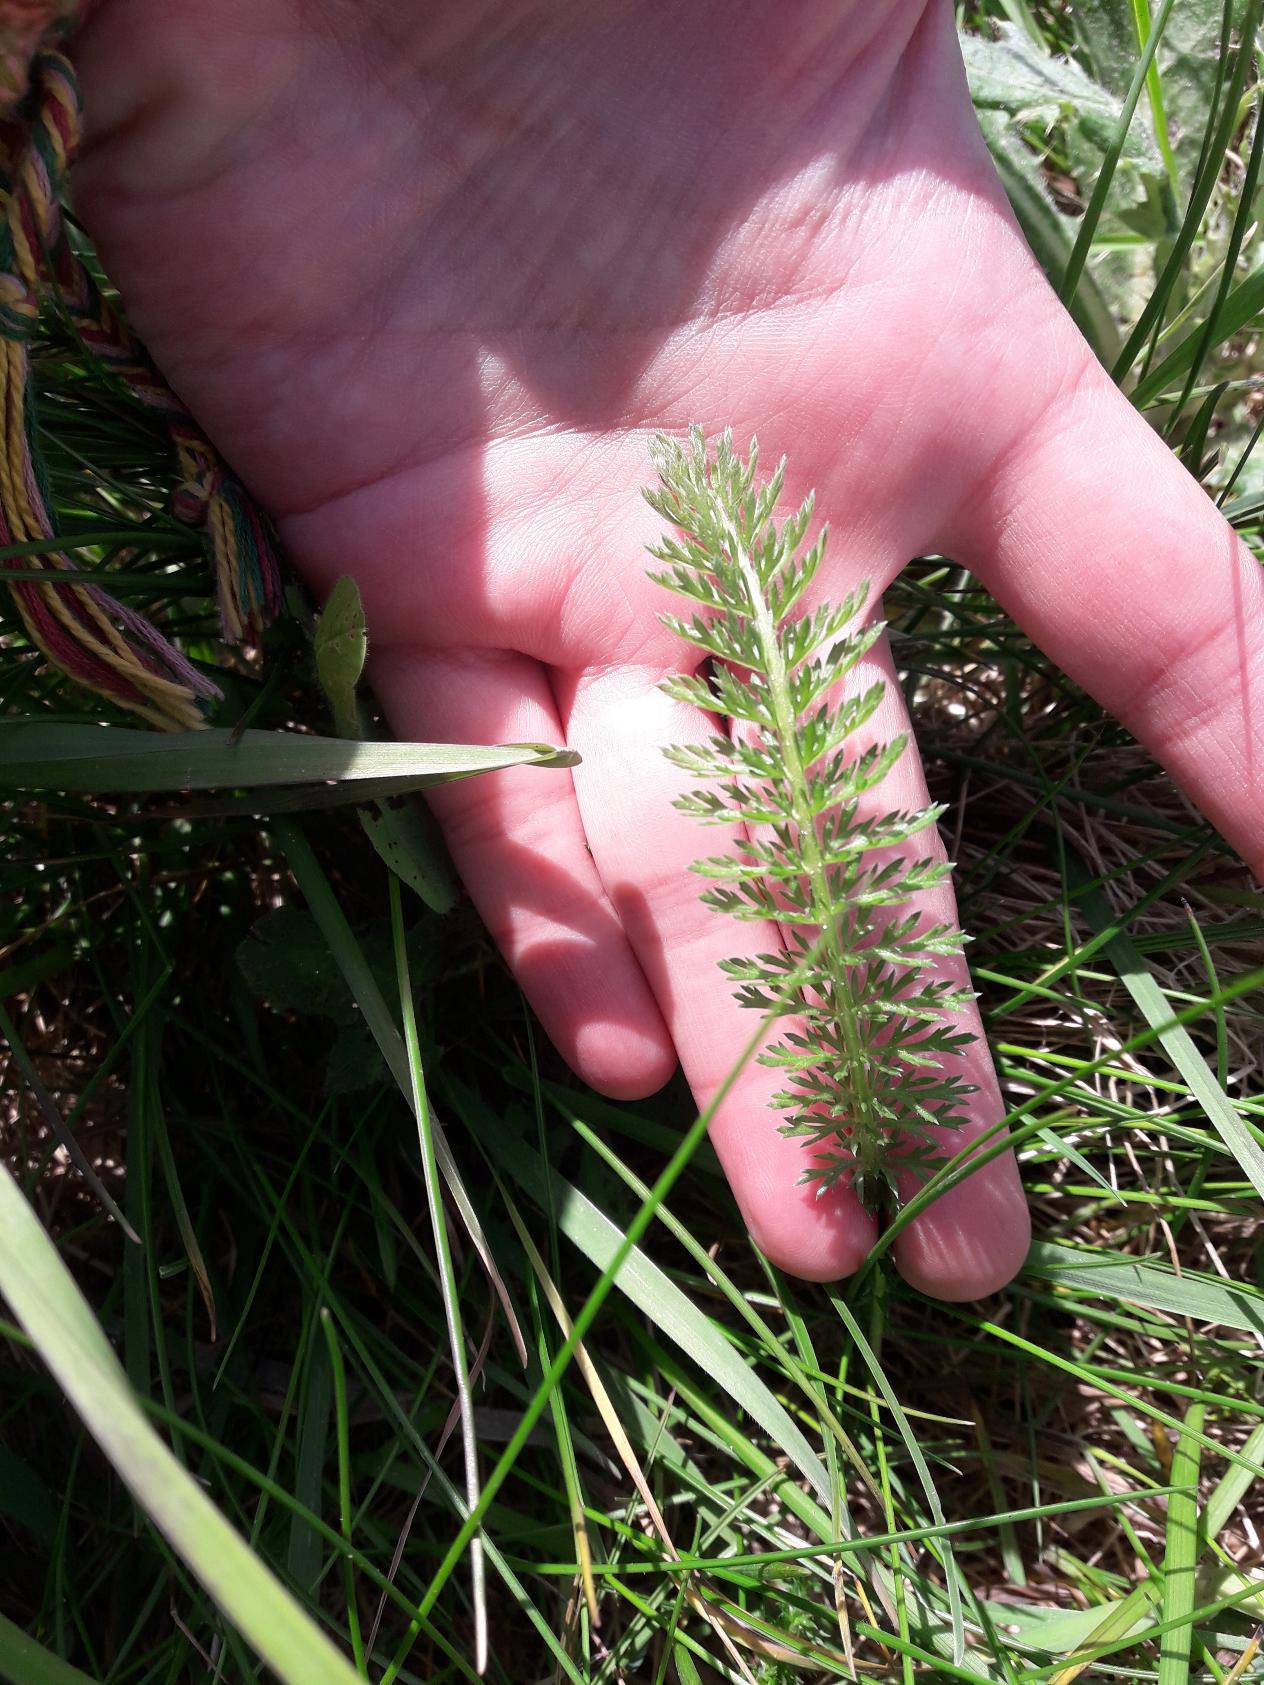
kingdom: Plantae
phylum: Tracheophyta
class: Magnoliopsida
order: Asterales
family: Asteraceae
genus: Achillea
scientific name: Achillea millefolium
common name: Almindelig røllike
